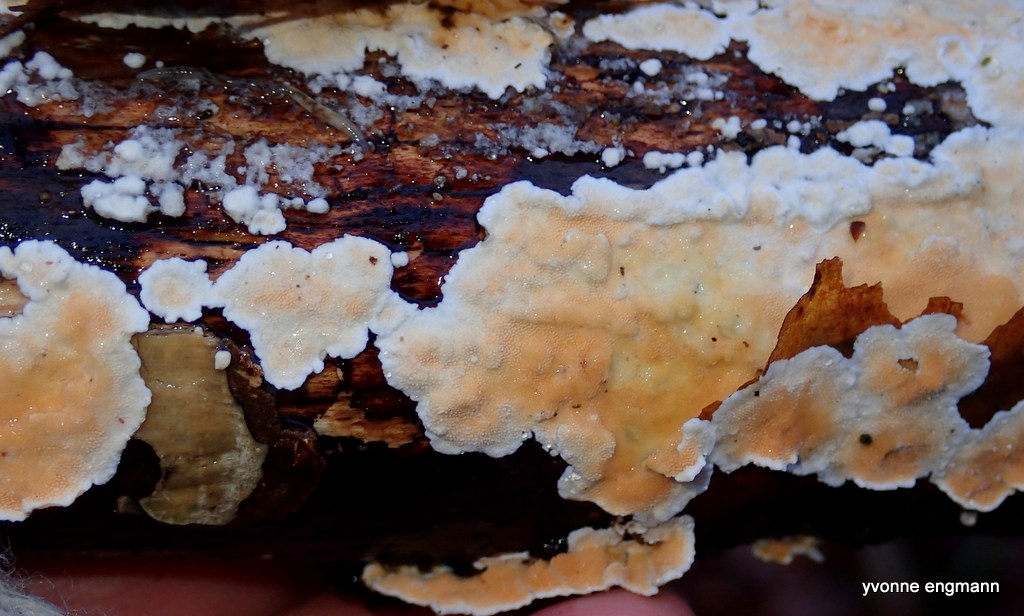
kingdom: Fungi
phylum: Basidiomycota
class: Agaricomycetes
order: Polyporales
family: Steccherinaceae
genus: Steccherinum
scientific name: Steccherinum ochraceum
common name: almindelig skønpig
